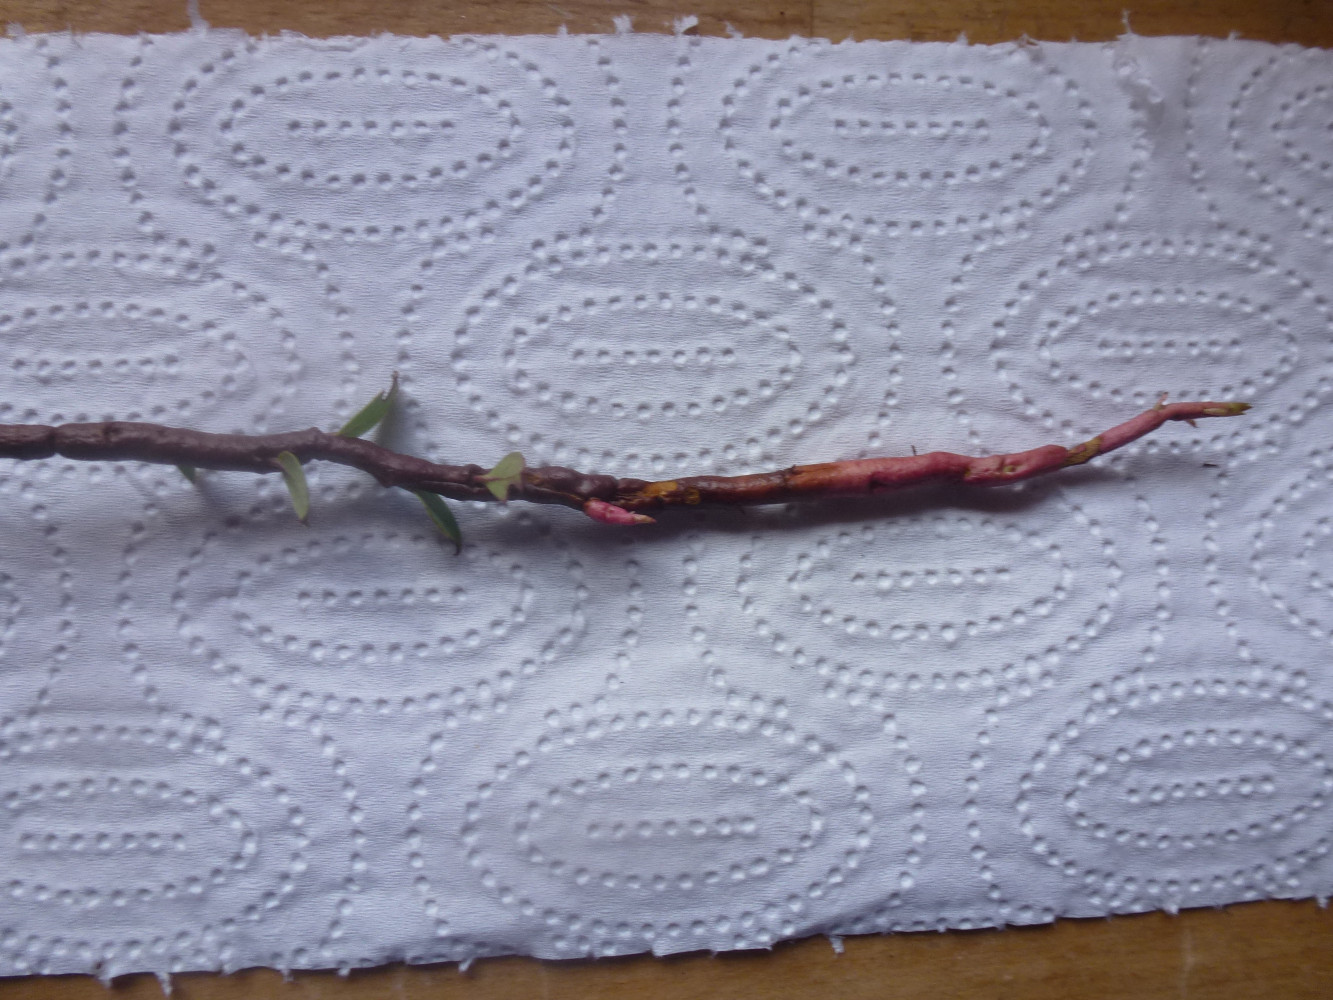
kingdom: Fungi
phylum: Basidiomycota
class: Pucciniomycetes
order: Pucciniales
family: Pucciniastraceae
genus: Calyptospora
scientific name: Calyptospora columnaris
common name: Huckleberry broom rust fungus
